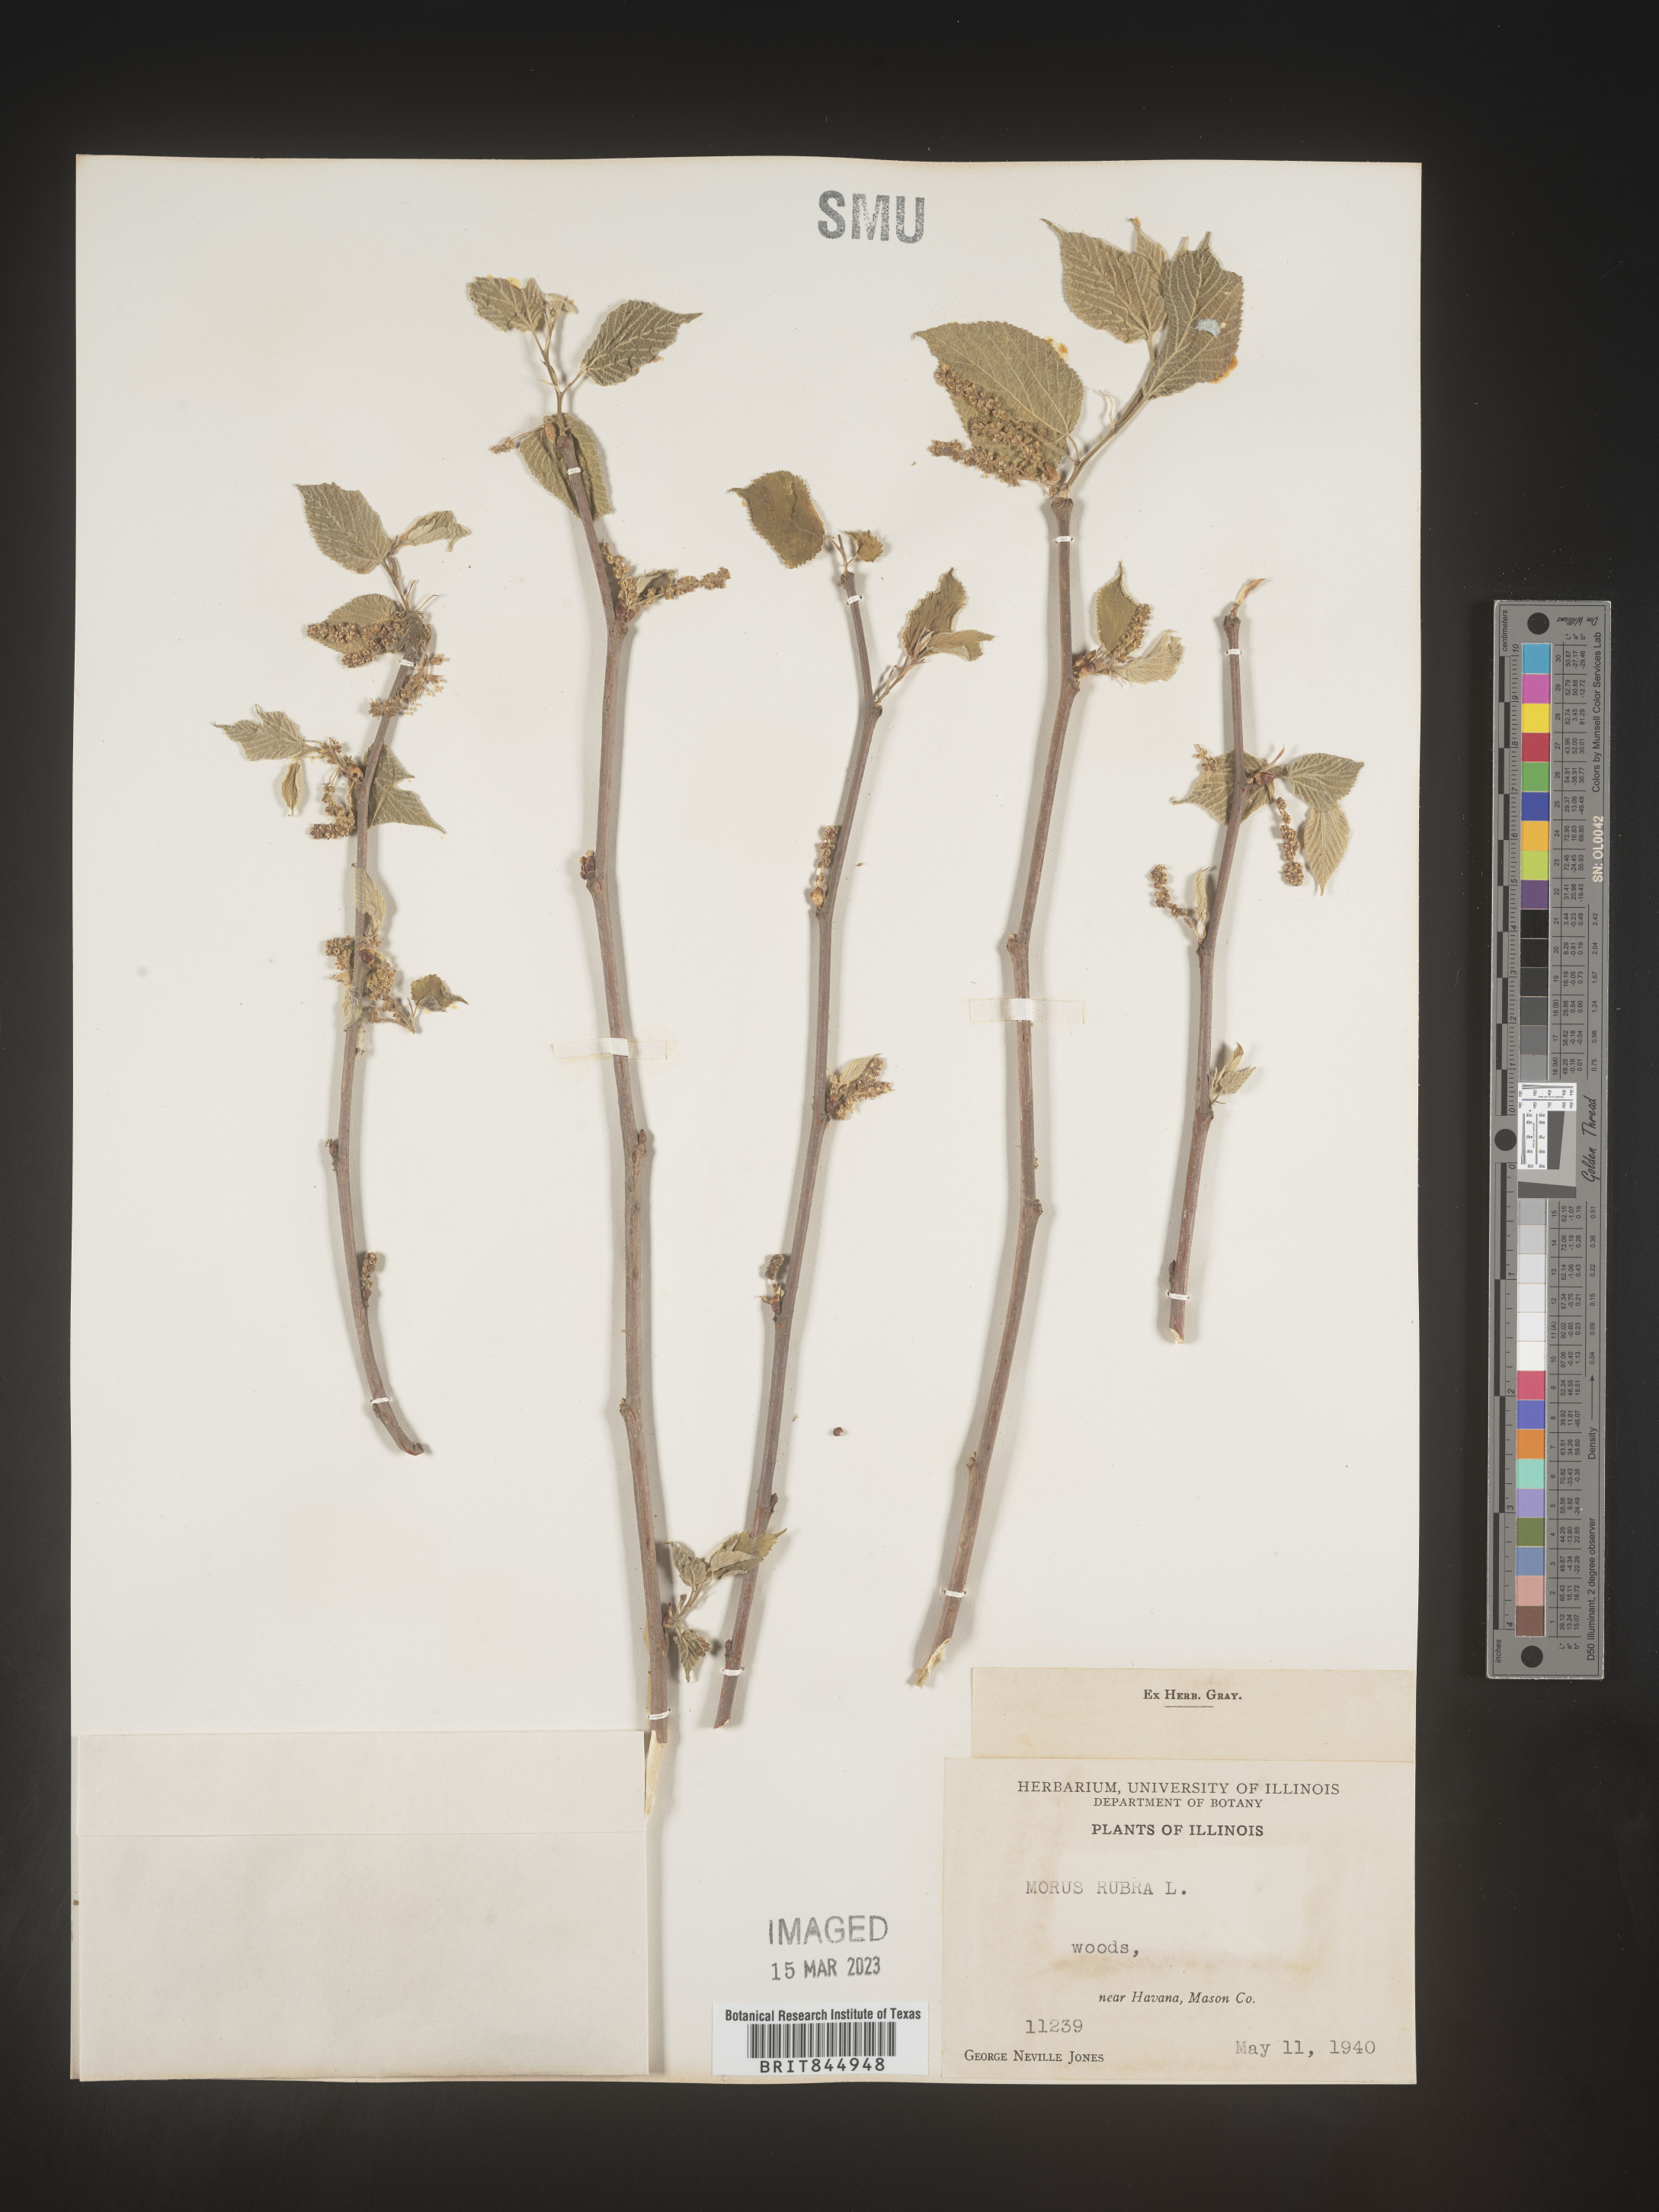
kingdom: Plantae
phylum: Tracheophyta
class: Magnoliopsida
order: Rosales
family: Moraceae
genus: Morus
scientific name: Morus rubra
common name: Red mulberry
